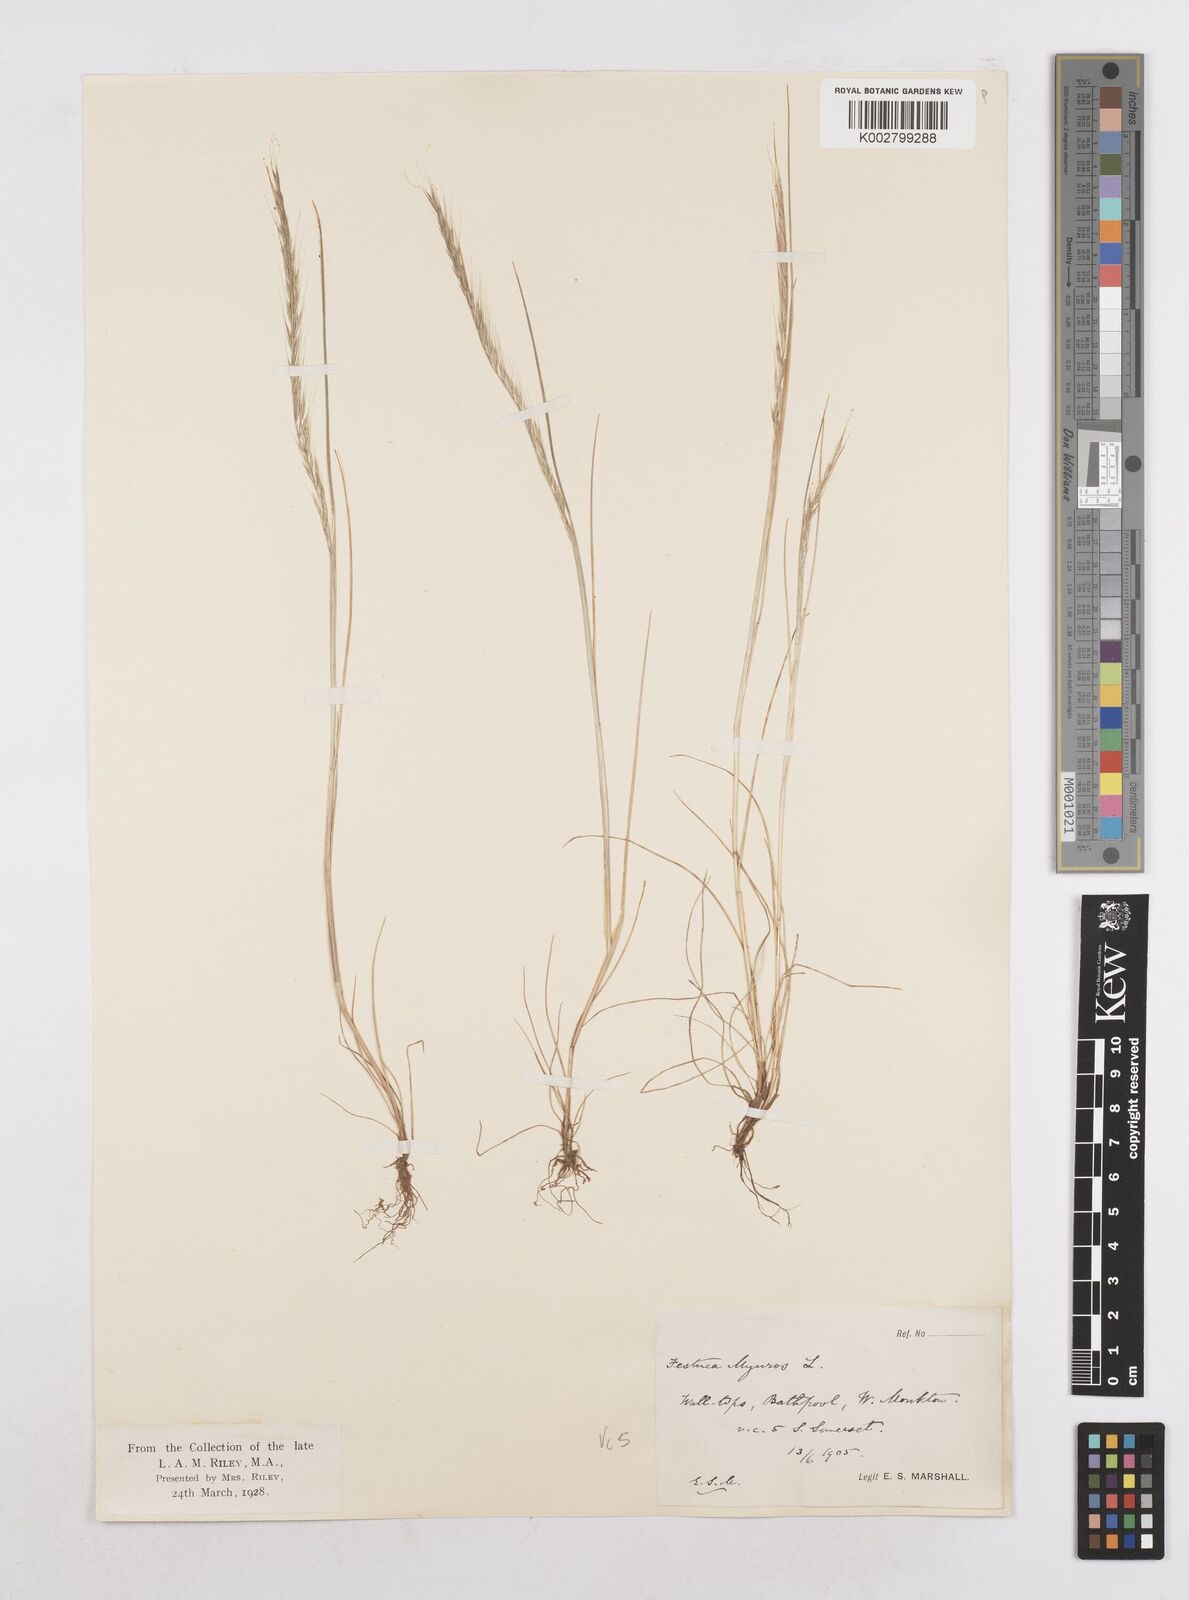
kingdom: Plantae
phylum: Tracheophyta
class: Liliopsida
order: Poales
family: Poaceae
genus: Festuca
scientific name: Festuca myuros
